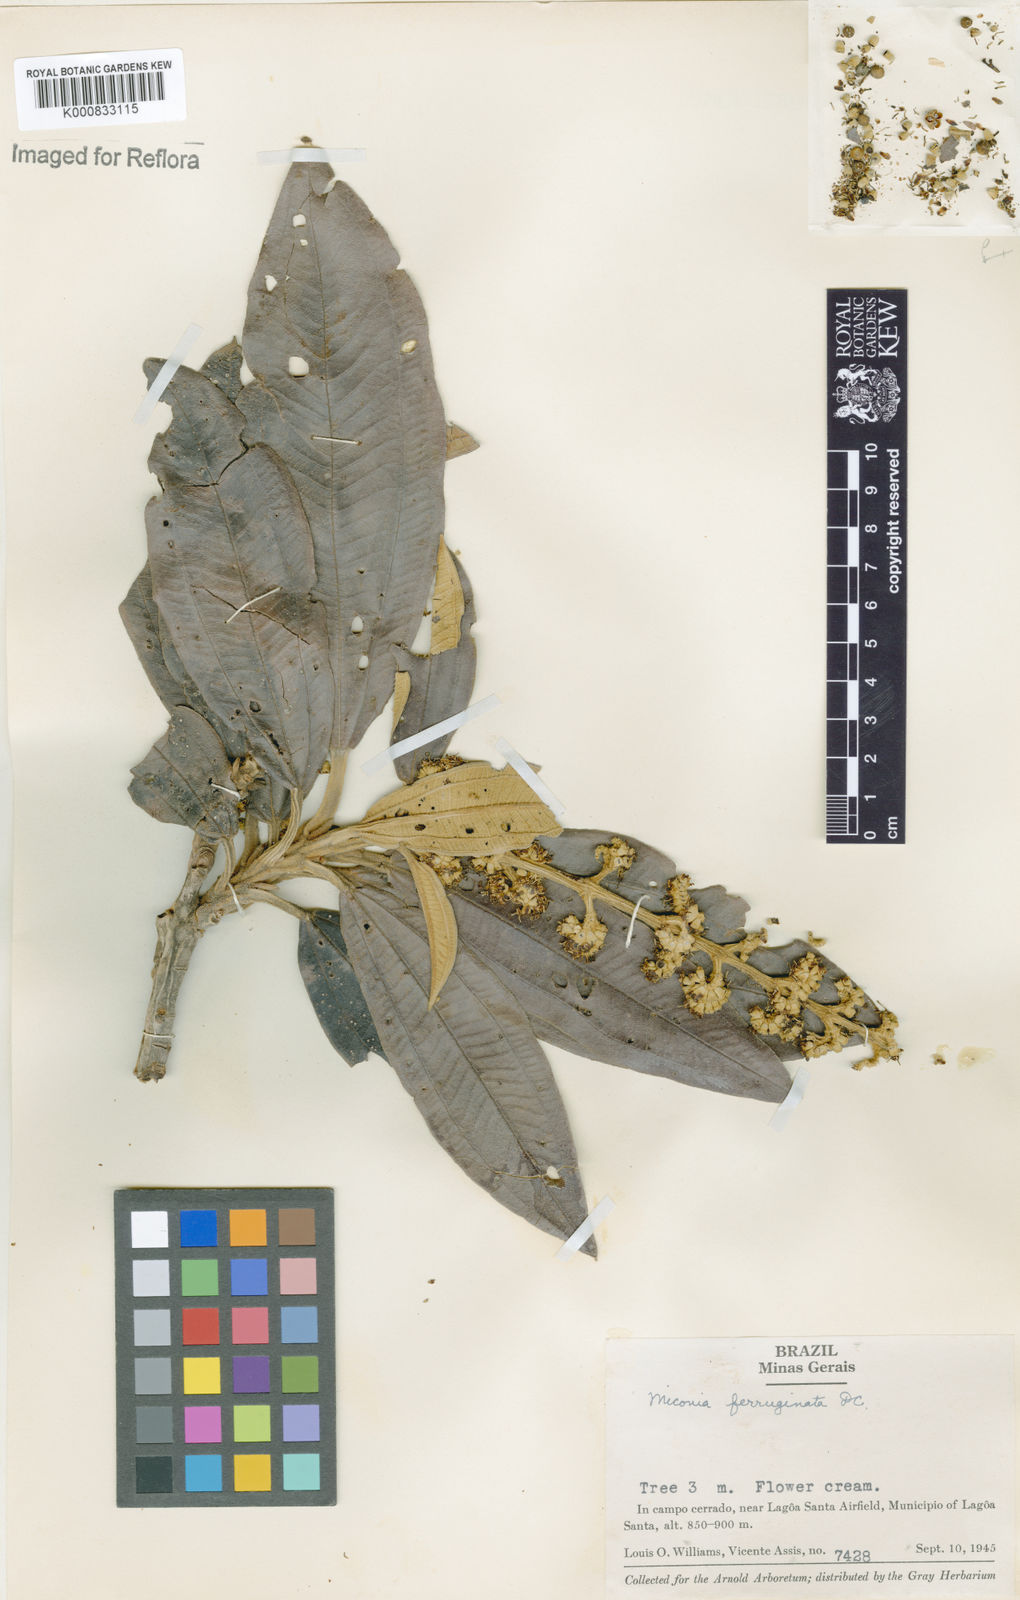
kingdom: Plantae
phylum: Tracheophyta
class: Magnoliopsida
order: Myrtales
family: Melastomataceae
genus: Miconia
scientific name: Miconia ferruginata
